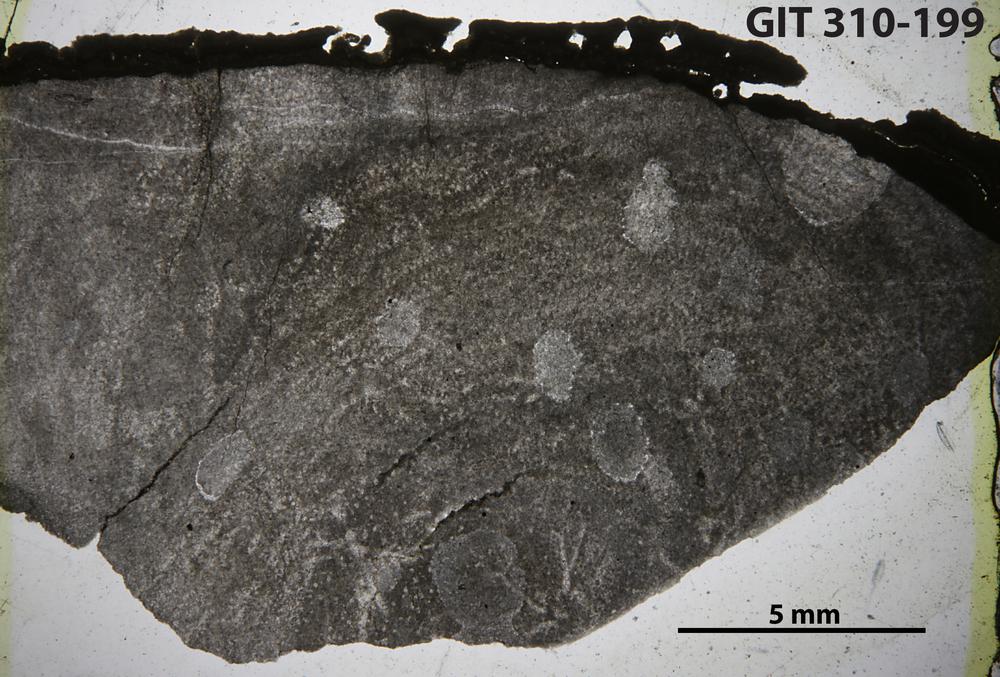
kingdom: Animalia
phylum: Porifera
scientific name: Porifera
